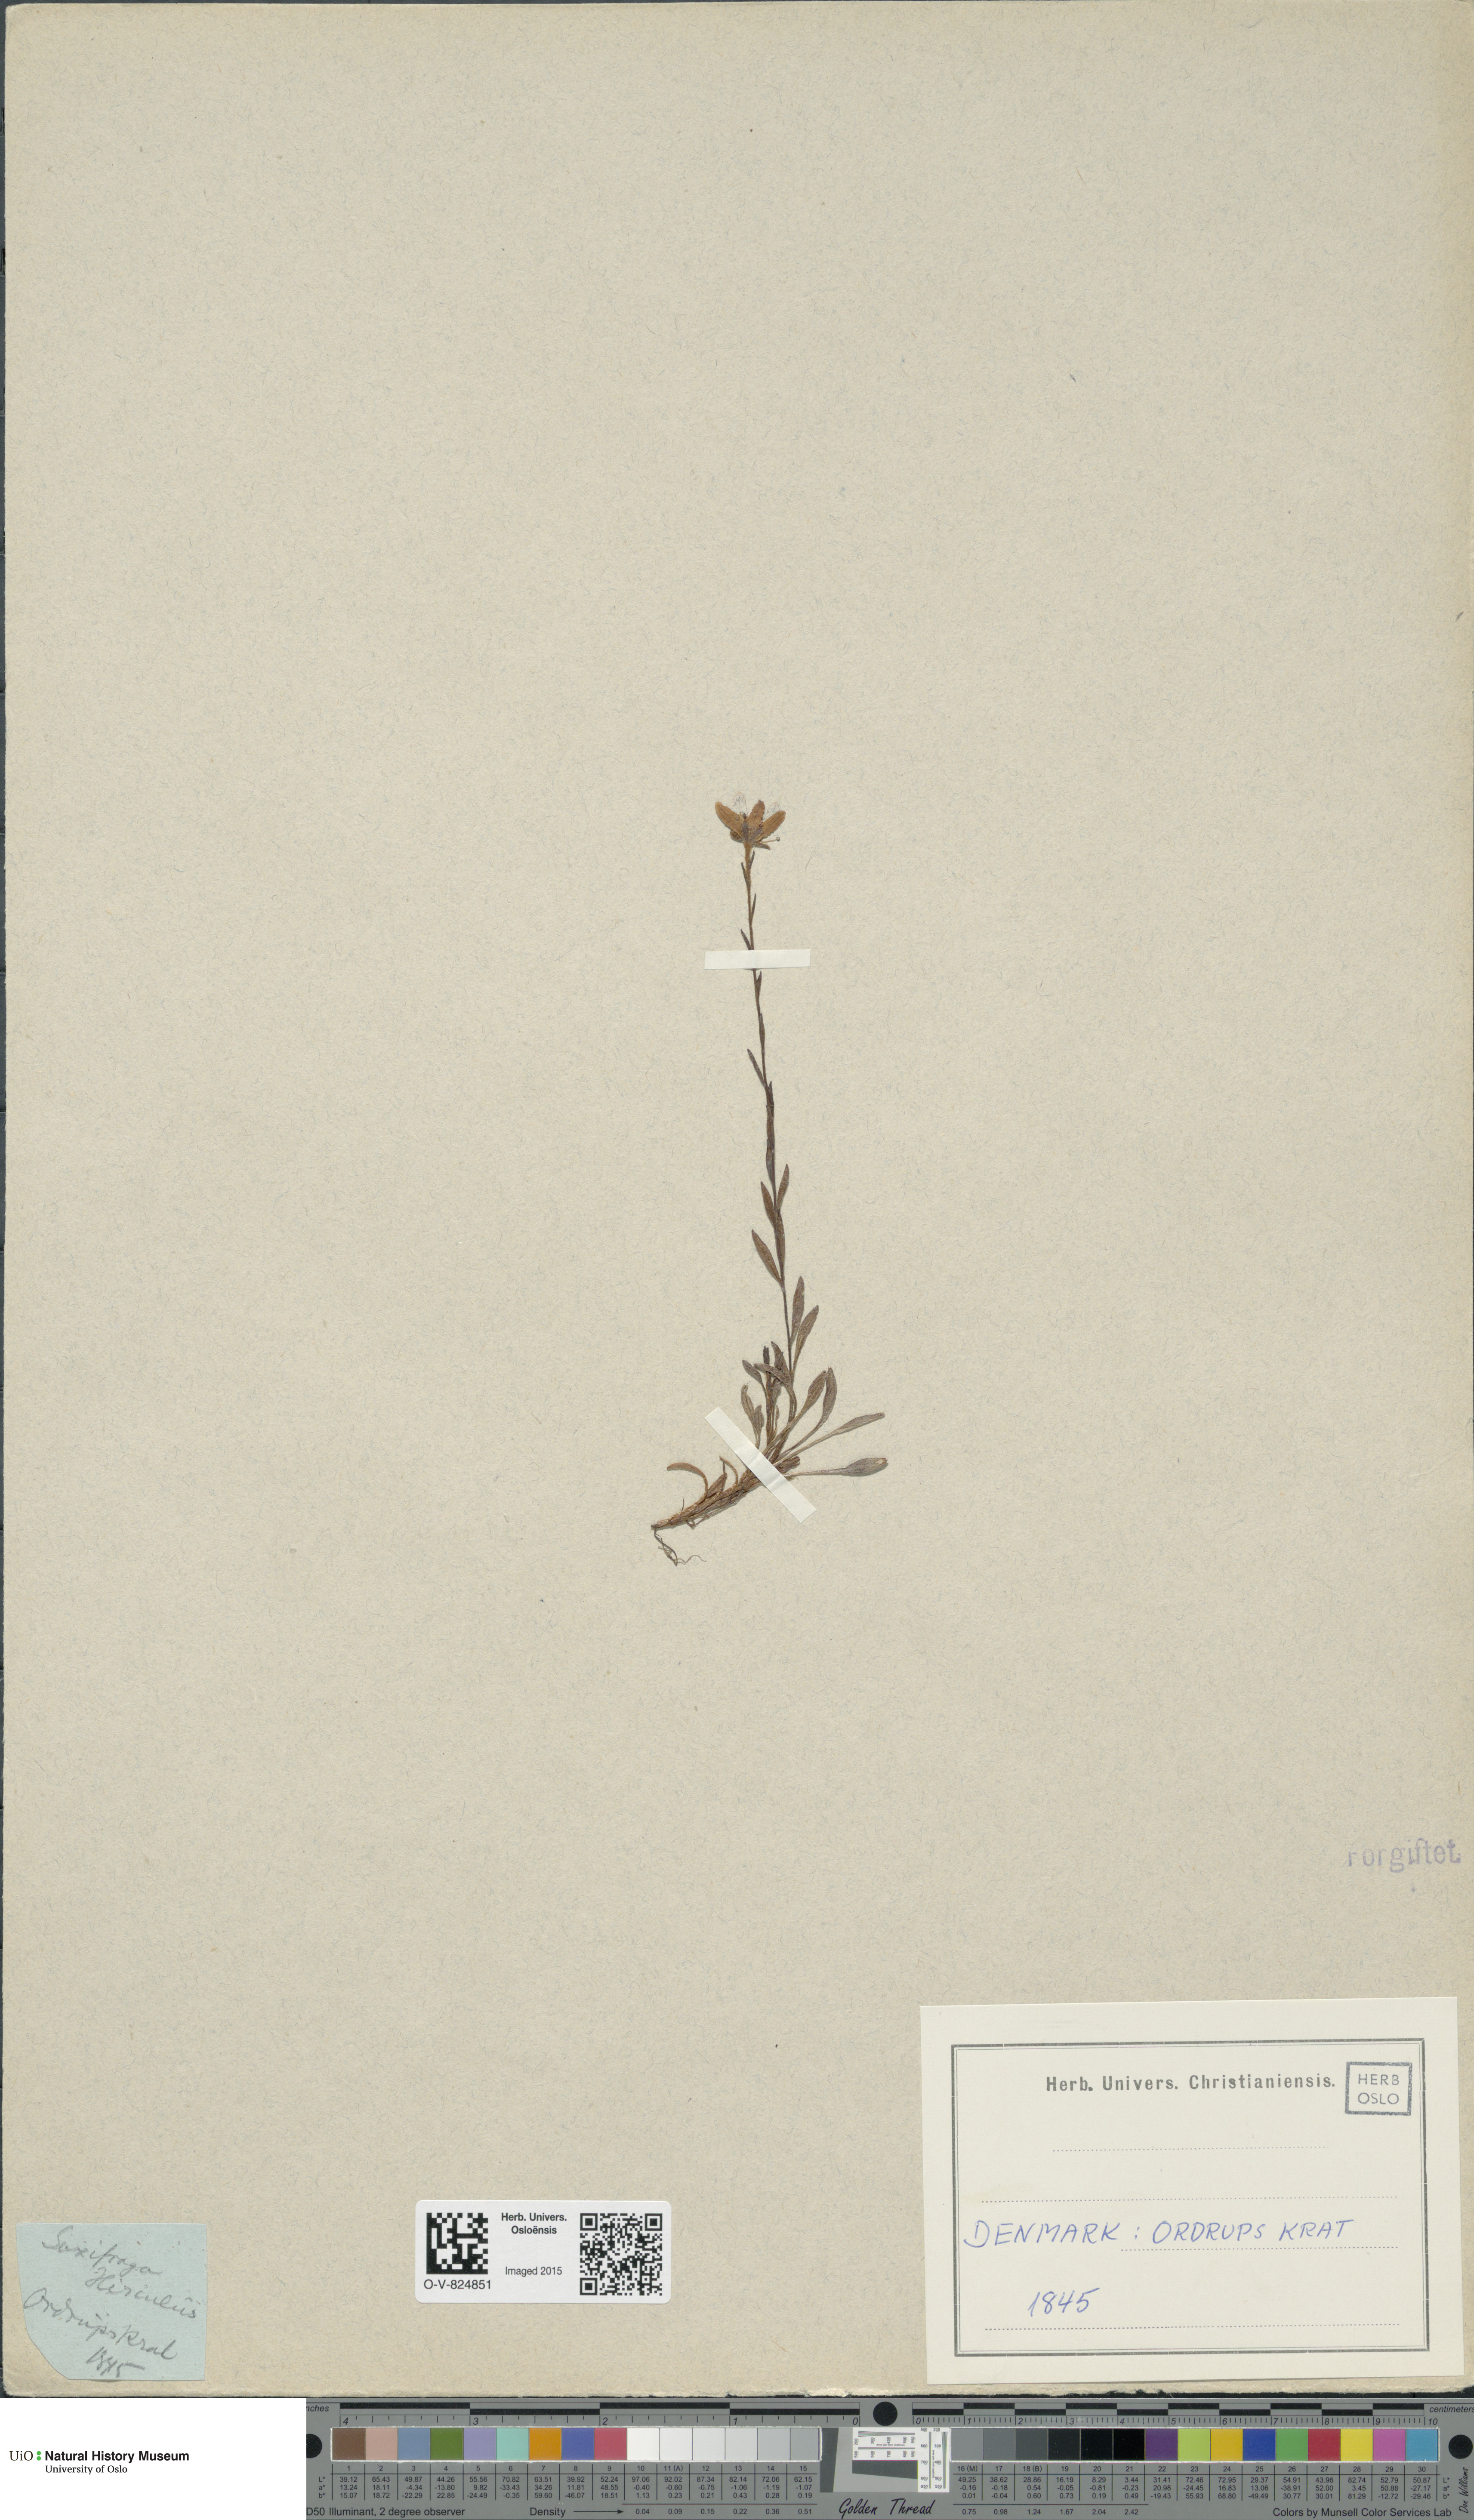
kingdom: Plantae
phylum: Tracheophyta
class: Magnoliopsida
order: Saxifragales
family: Saxifragaceae
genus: Saxifraga
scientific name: Saxifraga hirculus
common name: Yellow marsh saxifrage
